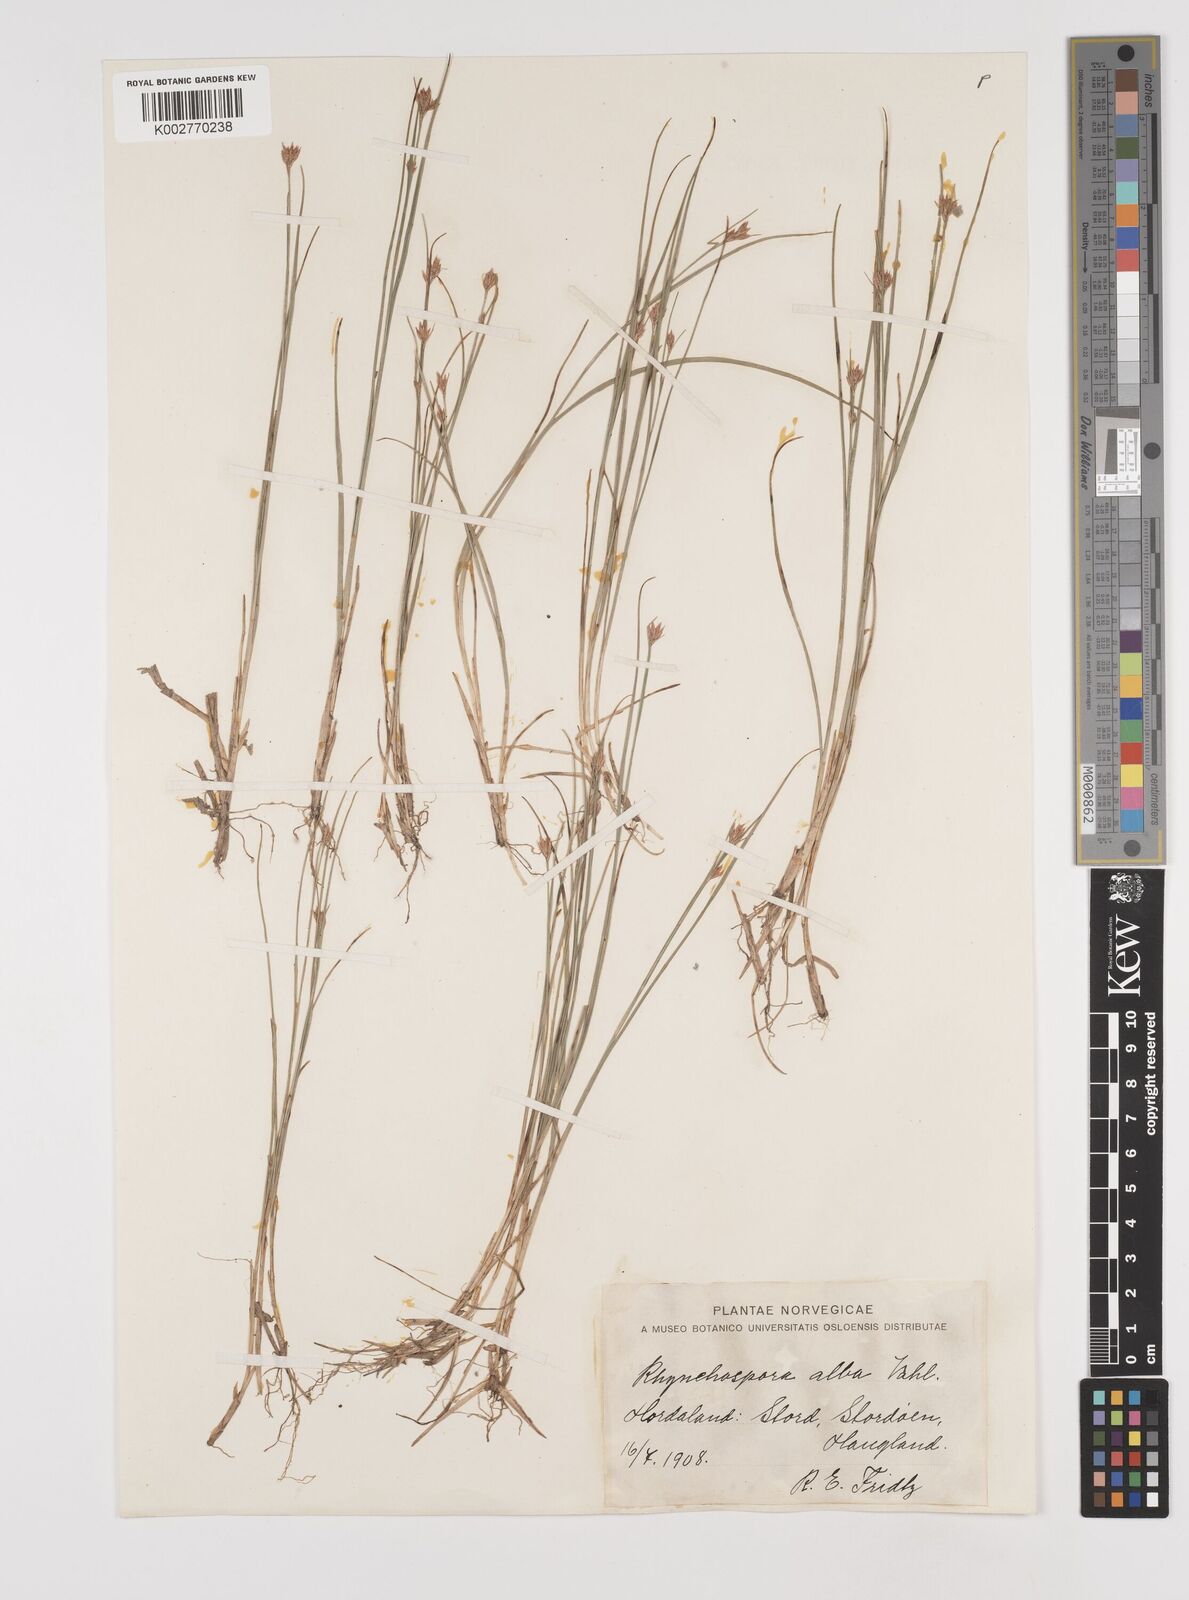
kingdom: Plantae
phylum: Tracheophyta
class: Liliopsida
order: Poales
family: Cyperaceae
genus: Rhynchospora
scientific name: Rhynchospora alba
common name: White beak-sedge
